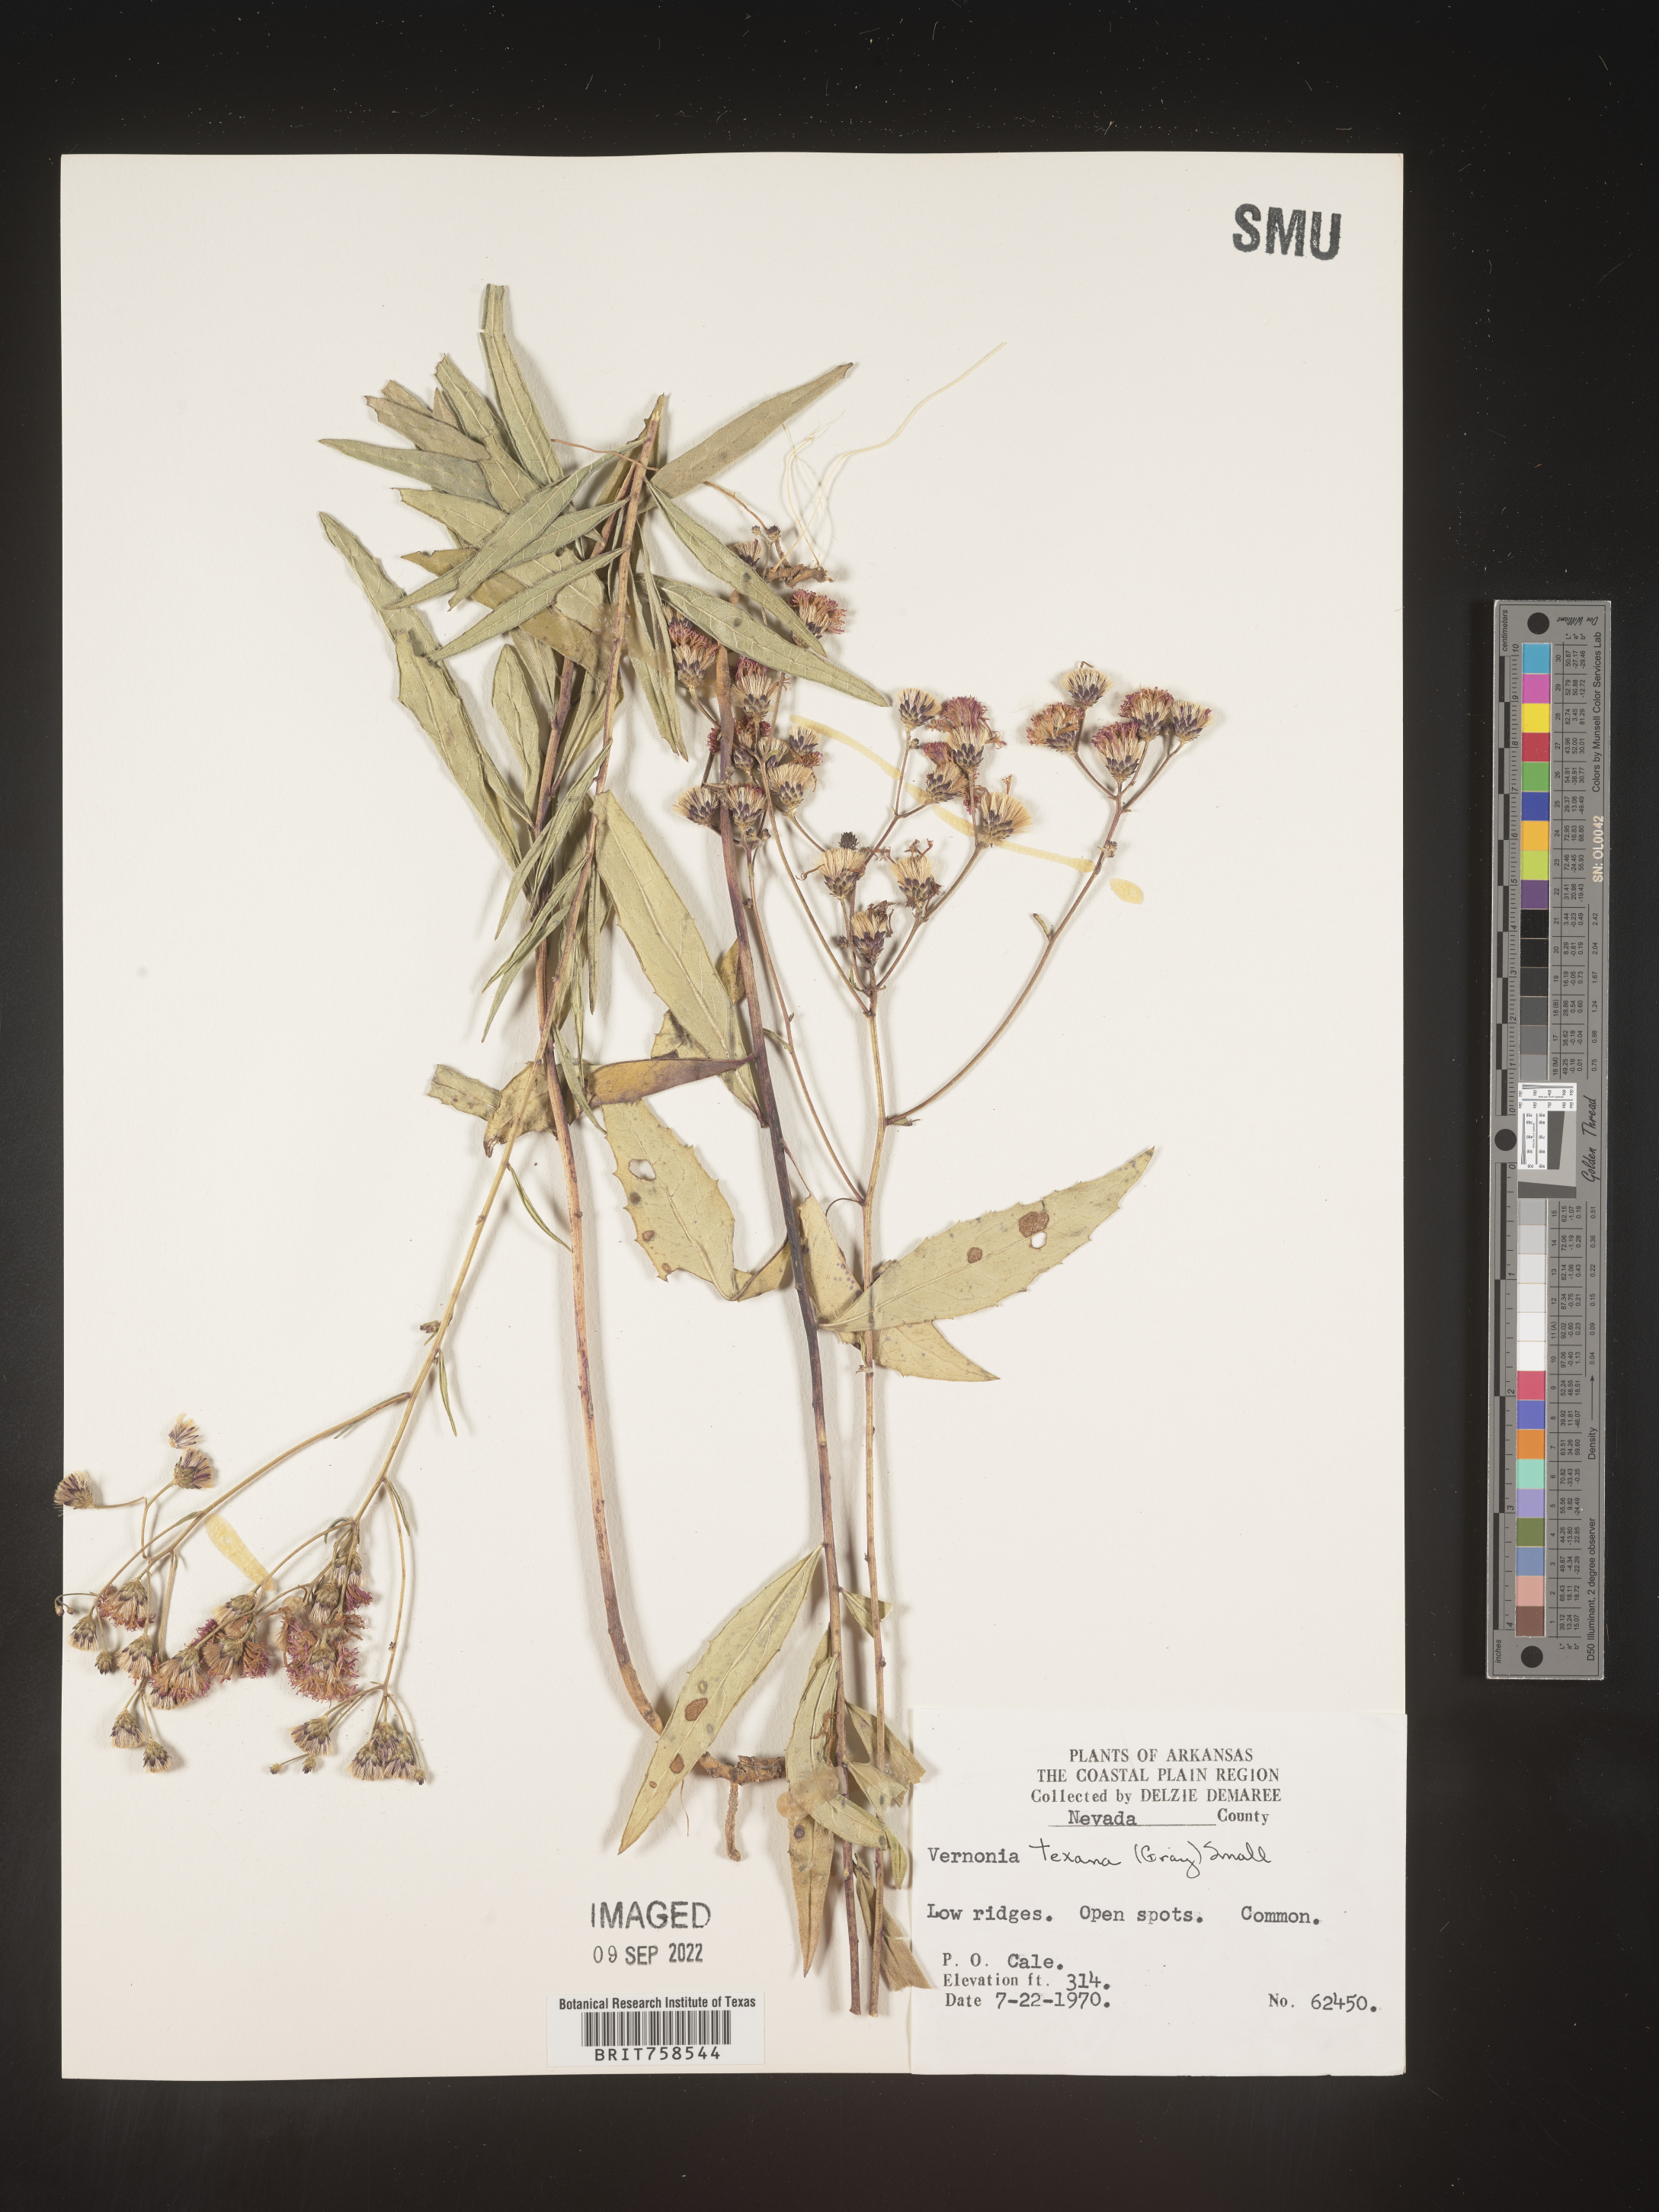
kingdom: Plantae
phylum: Tracheophyta
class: Magnoliopsida
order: Asterales
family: Asteraceae
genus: Vernonia
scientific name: Vernonia texana
